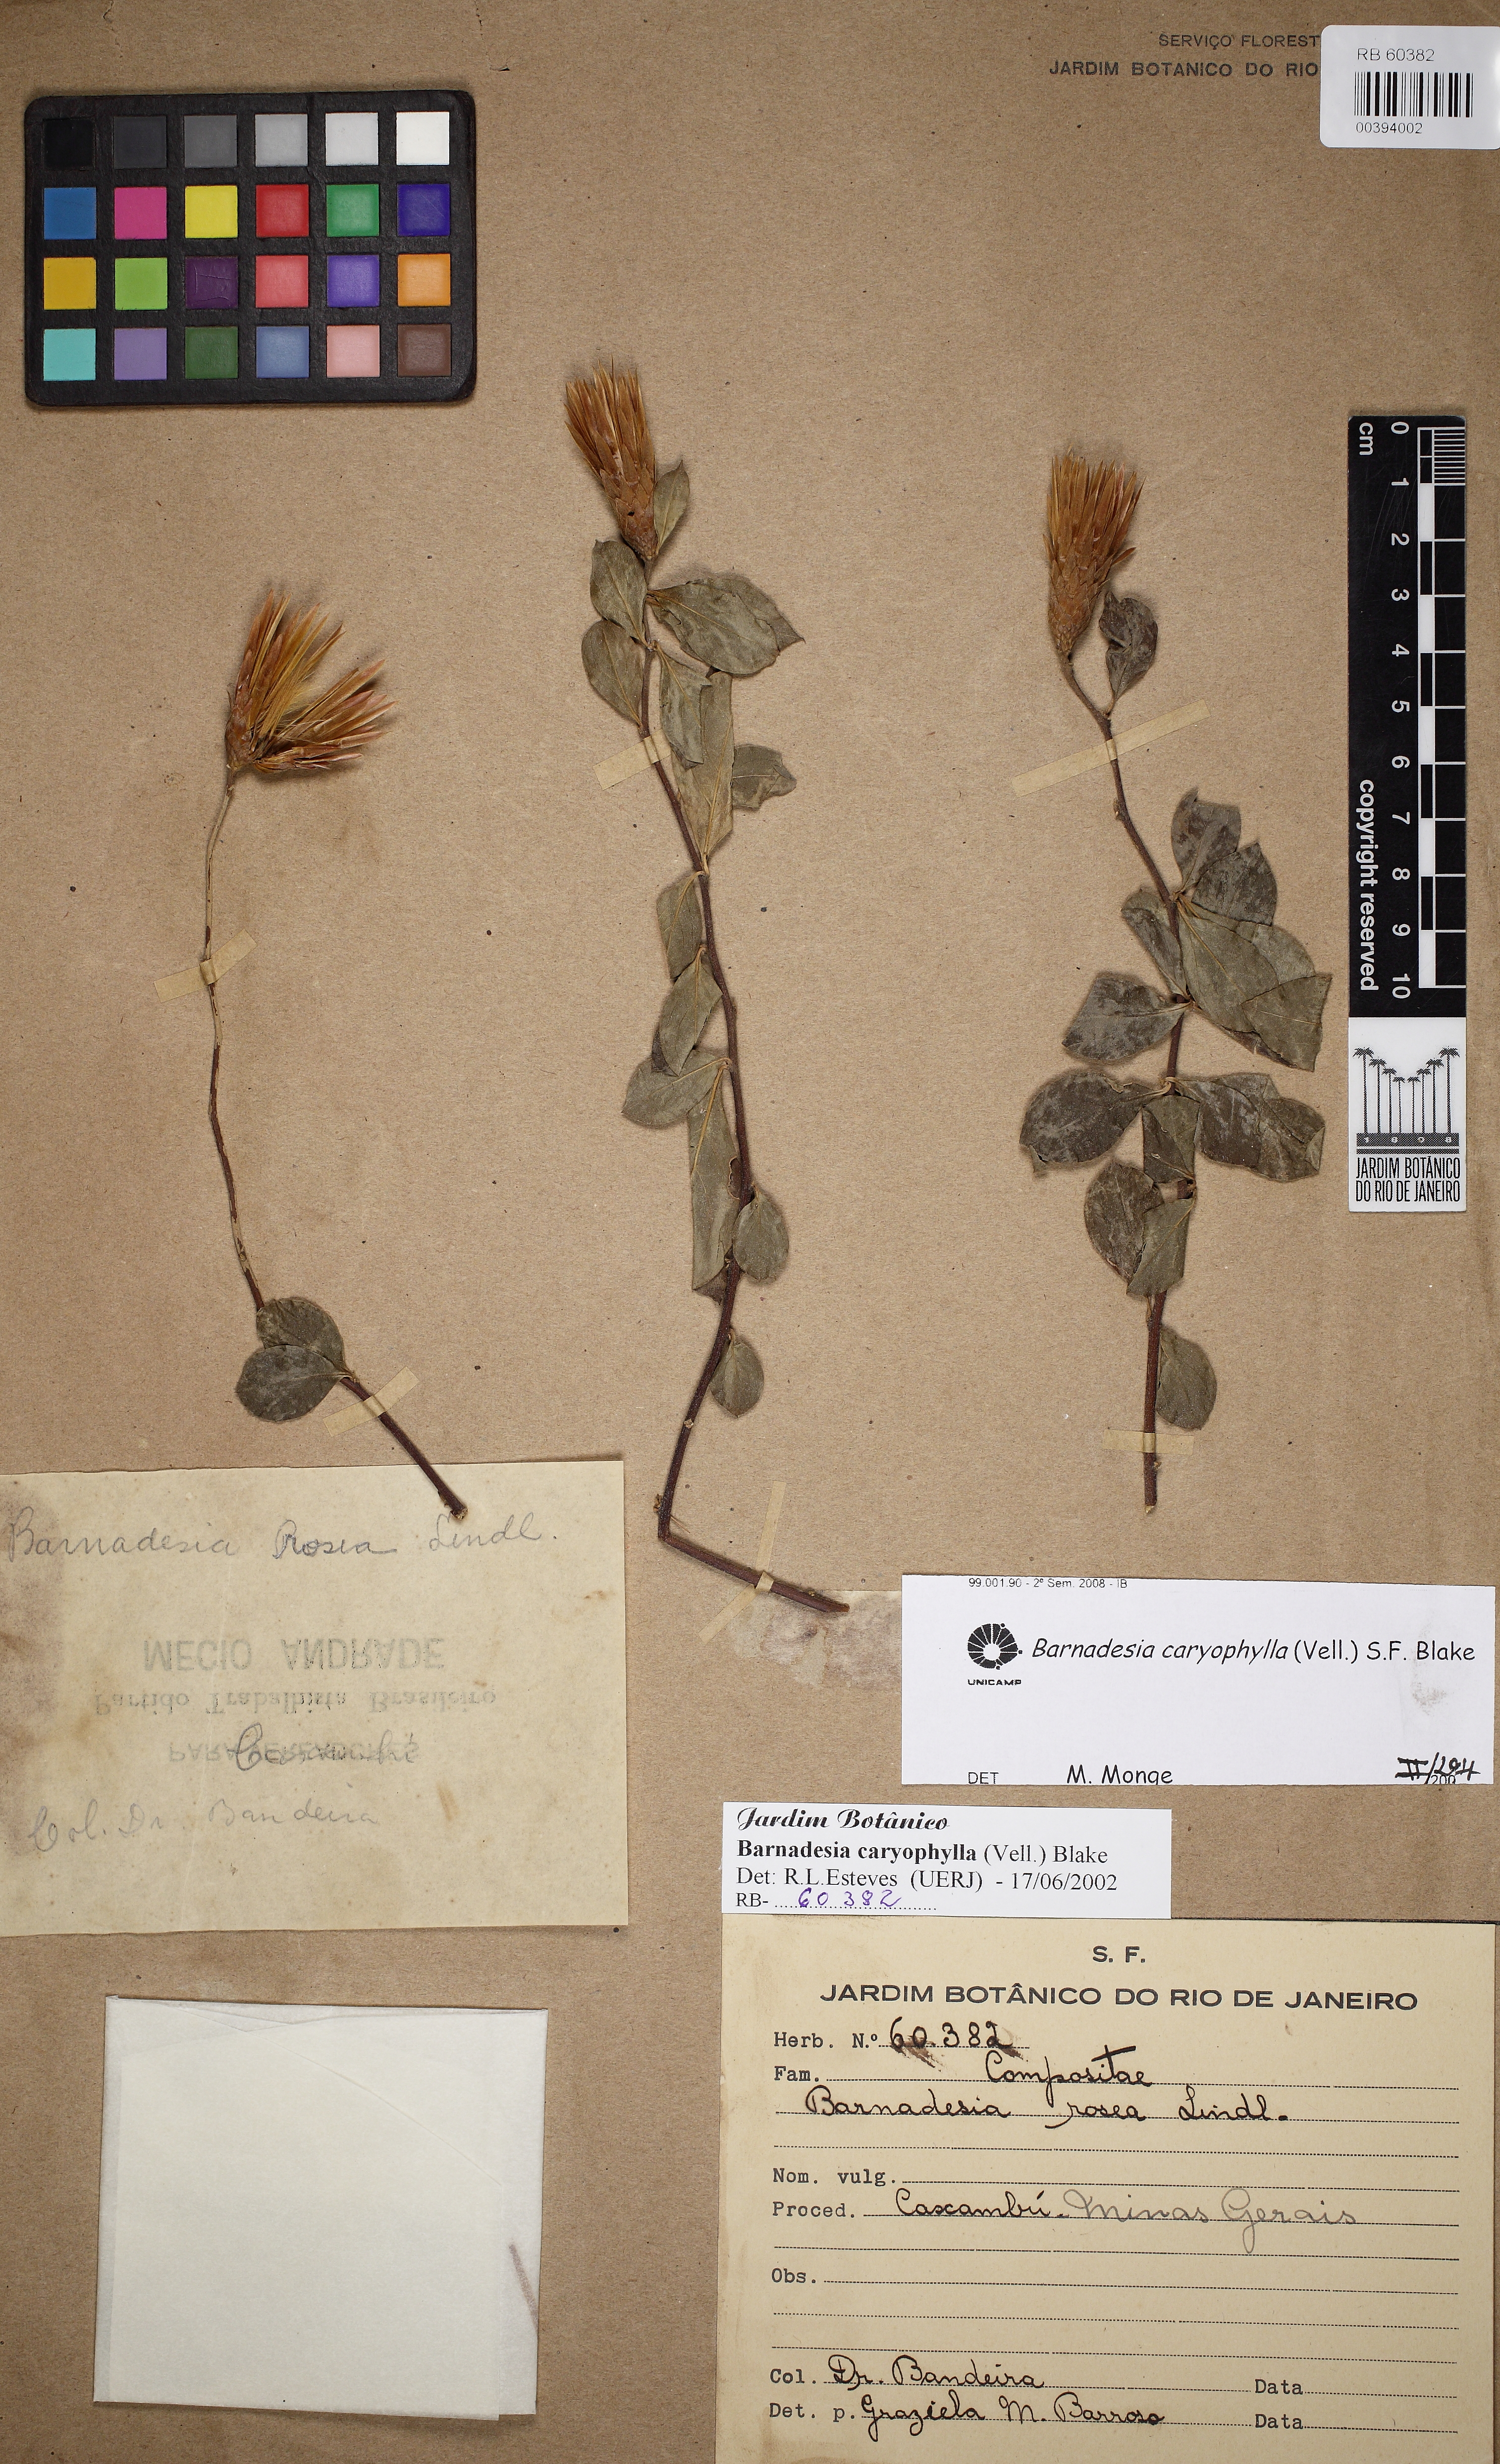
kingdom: Plantae
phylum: Tracheophyta
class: Magnoliopsida
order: Asterales
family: Asteraceae
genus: Barnadesia
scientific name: Barnadesia caryophylla
